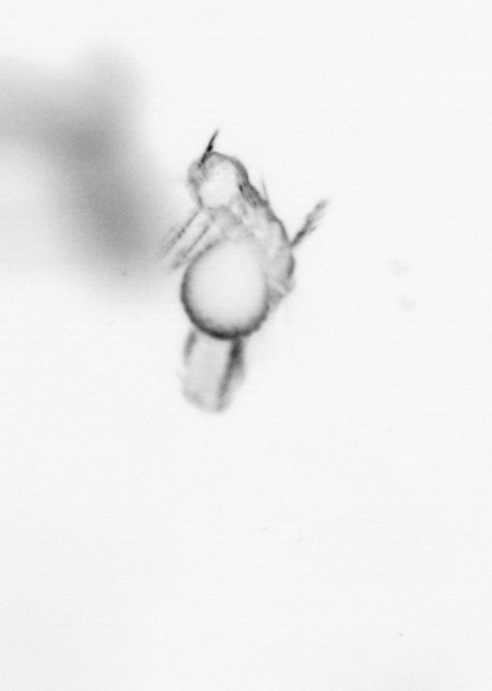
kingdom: Animalia
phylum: Annelida
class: Polychaeta
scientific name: Polychaeta
